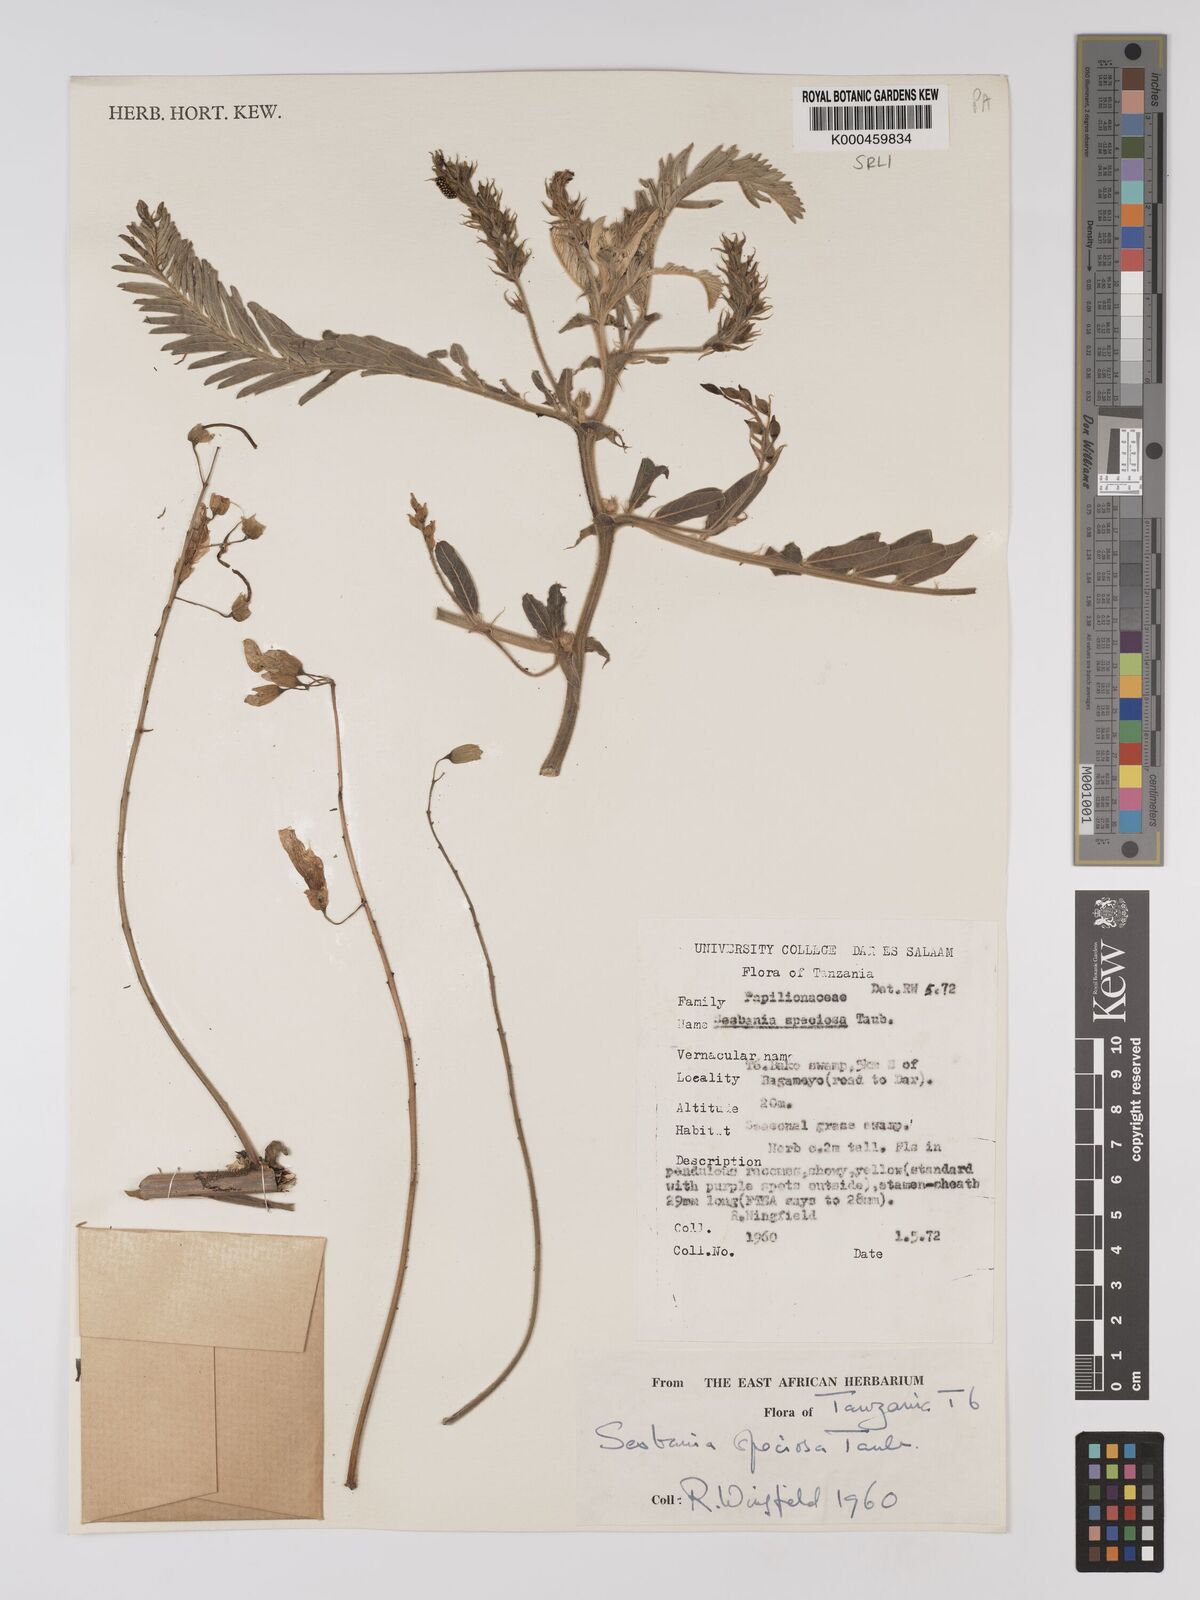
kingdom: Plantae
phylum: Tracheophyta
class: Magnoliopsida
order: Fabales
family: Fabaceae
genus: Sesbania
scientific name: Sesbania
